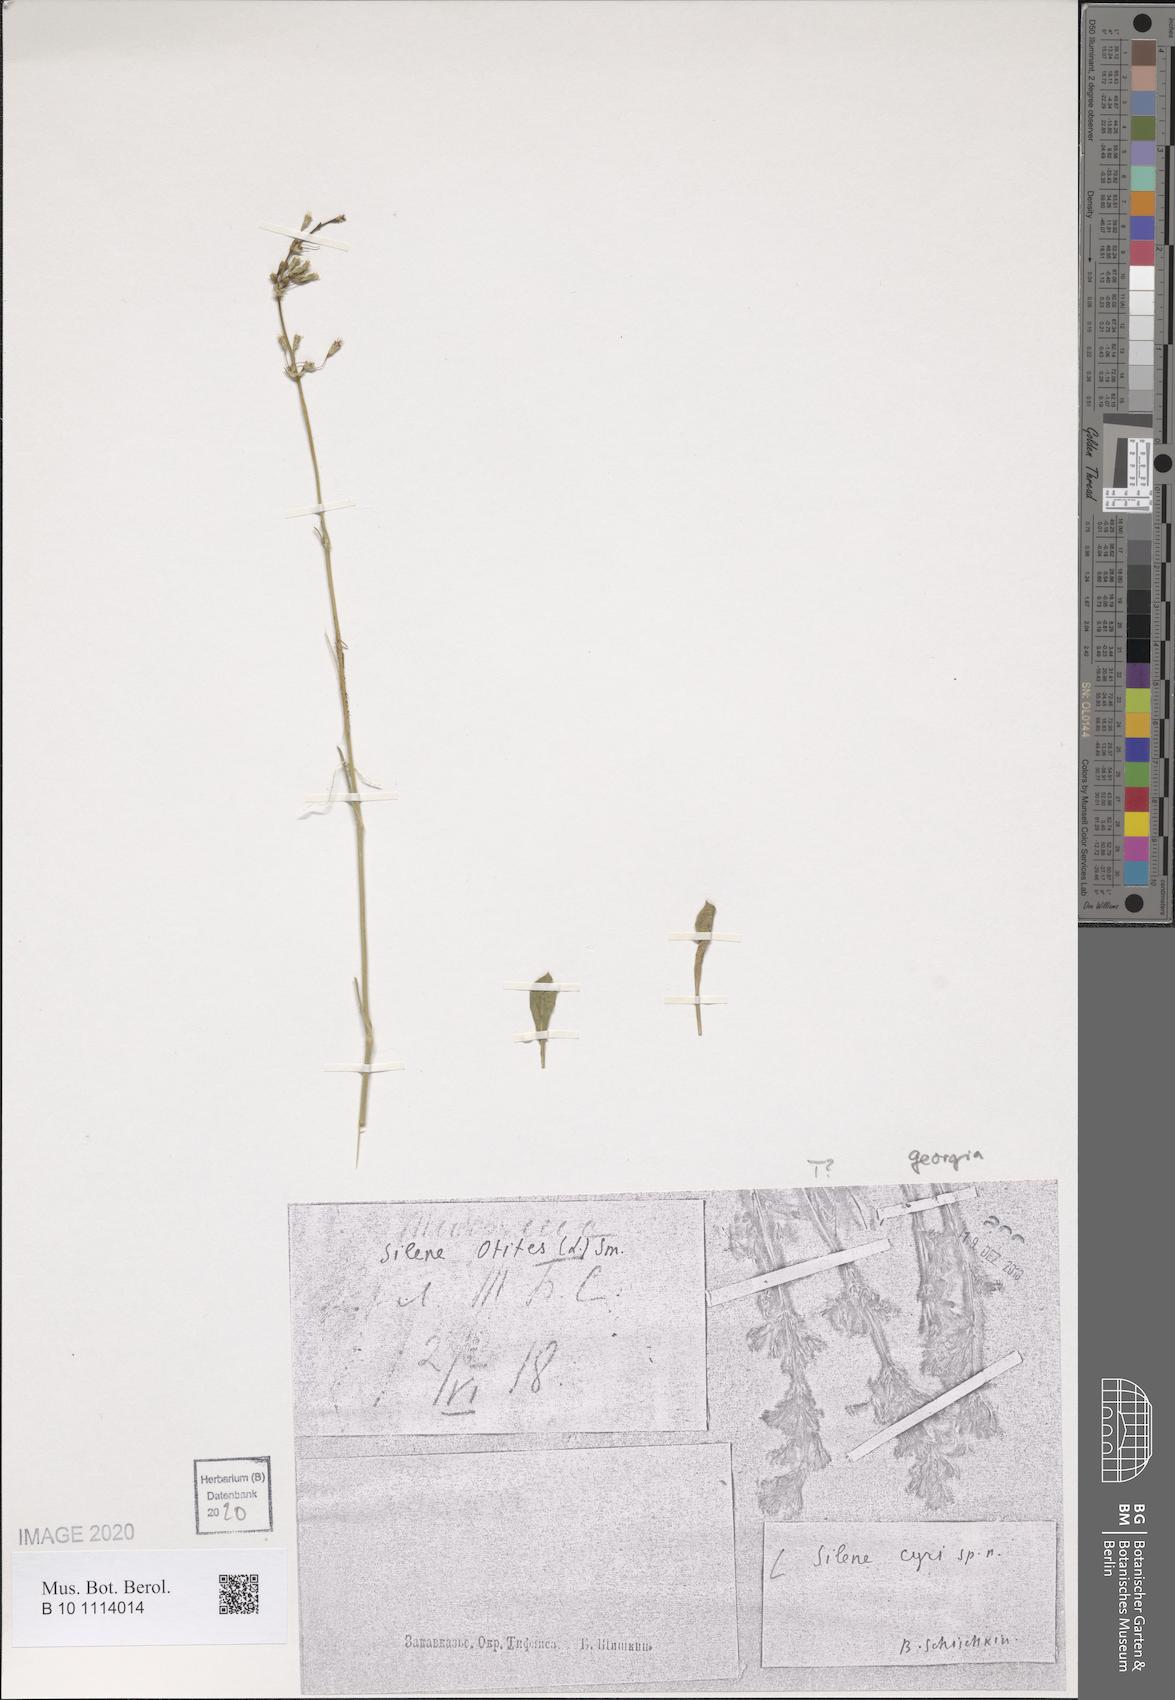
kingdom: Plantae
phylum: Tracheophyta
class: Magnoliopsida
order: Caryophyllales
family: Caryophyllaceae
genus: Silene
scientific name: Silene cyri
